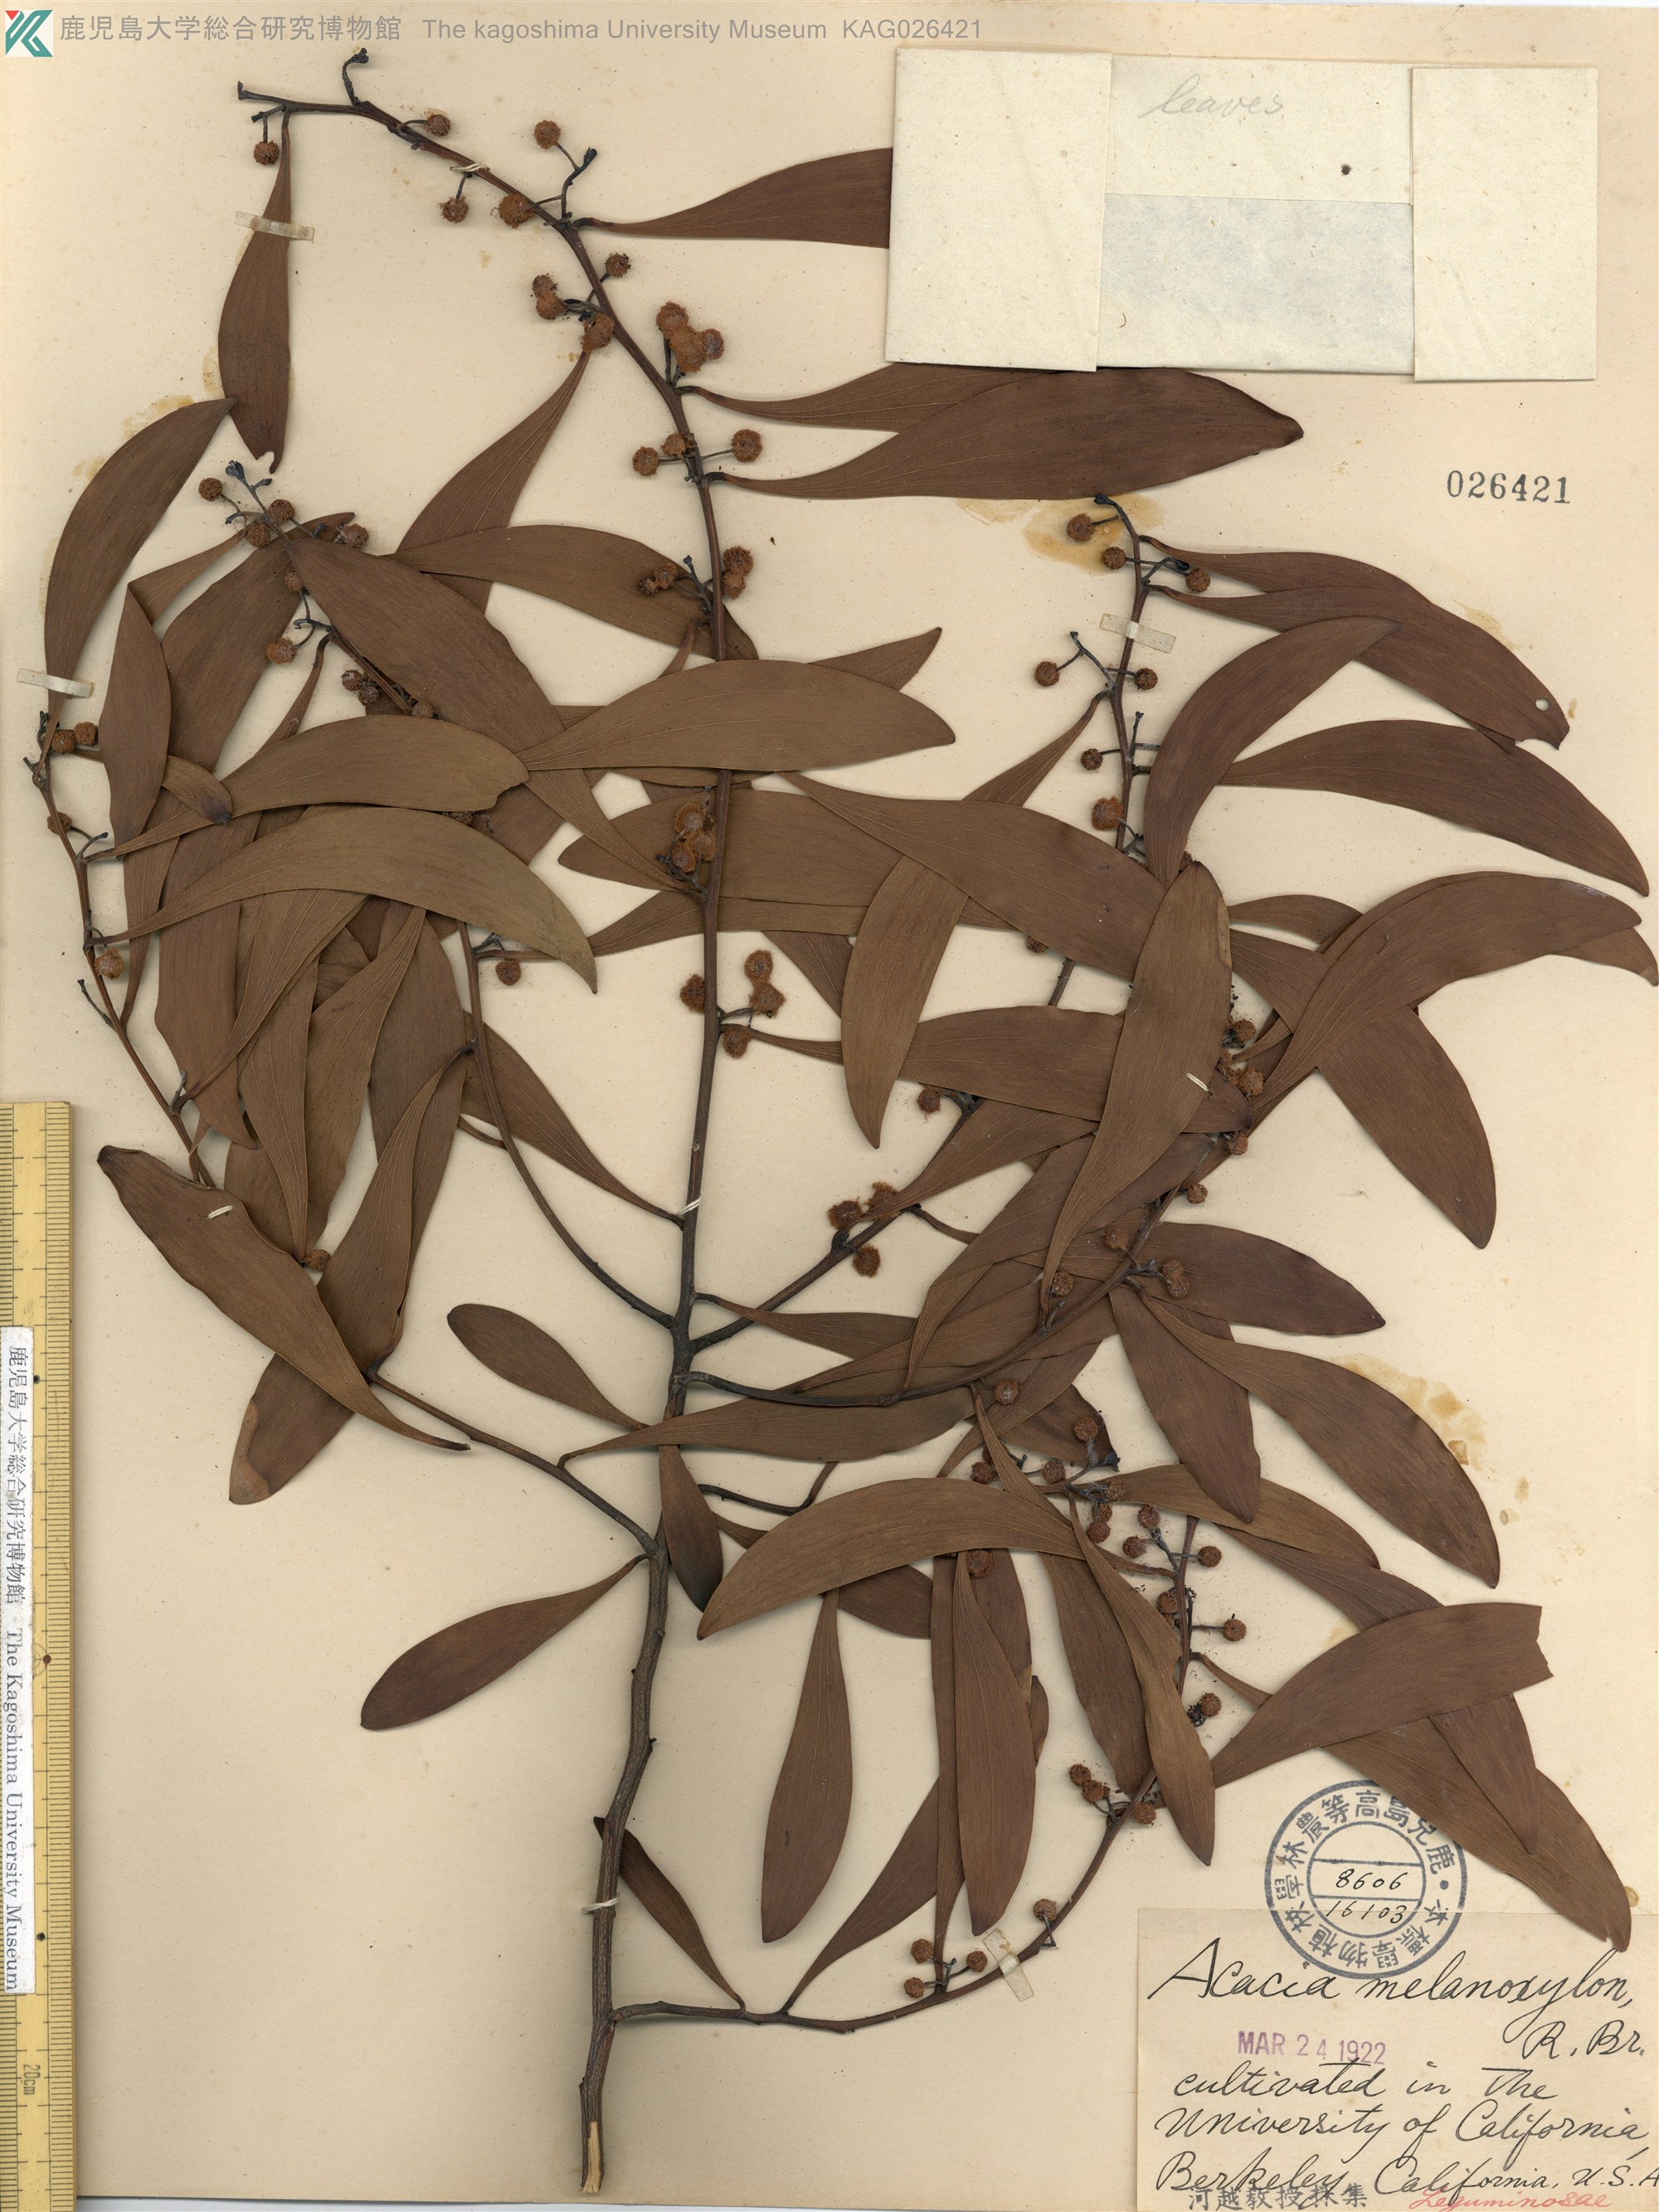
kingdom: Plantae
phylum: Tracheophyta
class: Magnoliopsida
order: Fabales
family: Fabaceae
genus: Acacia
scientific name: Acacia melanoxylon
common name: Blackwood
